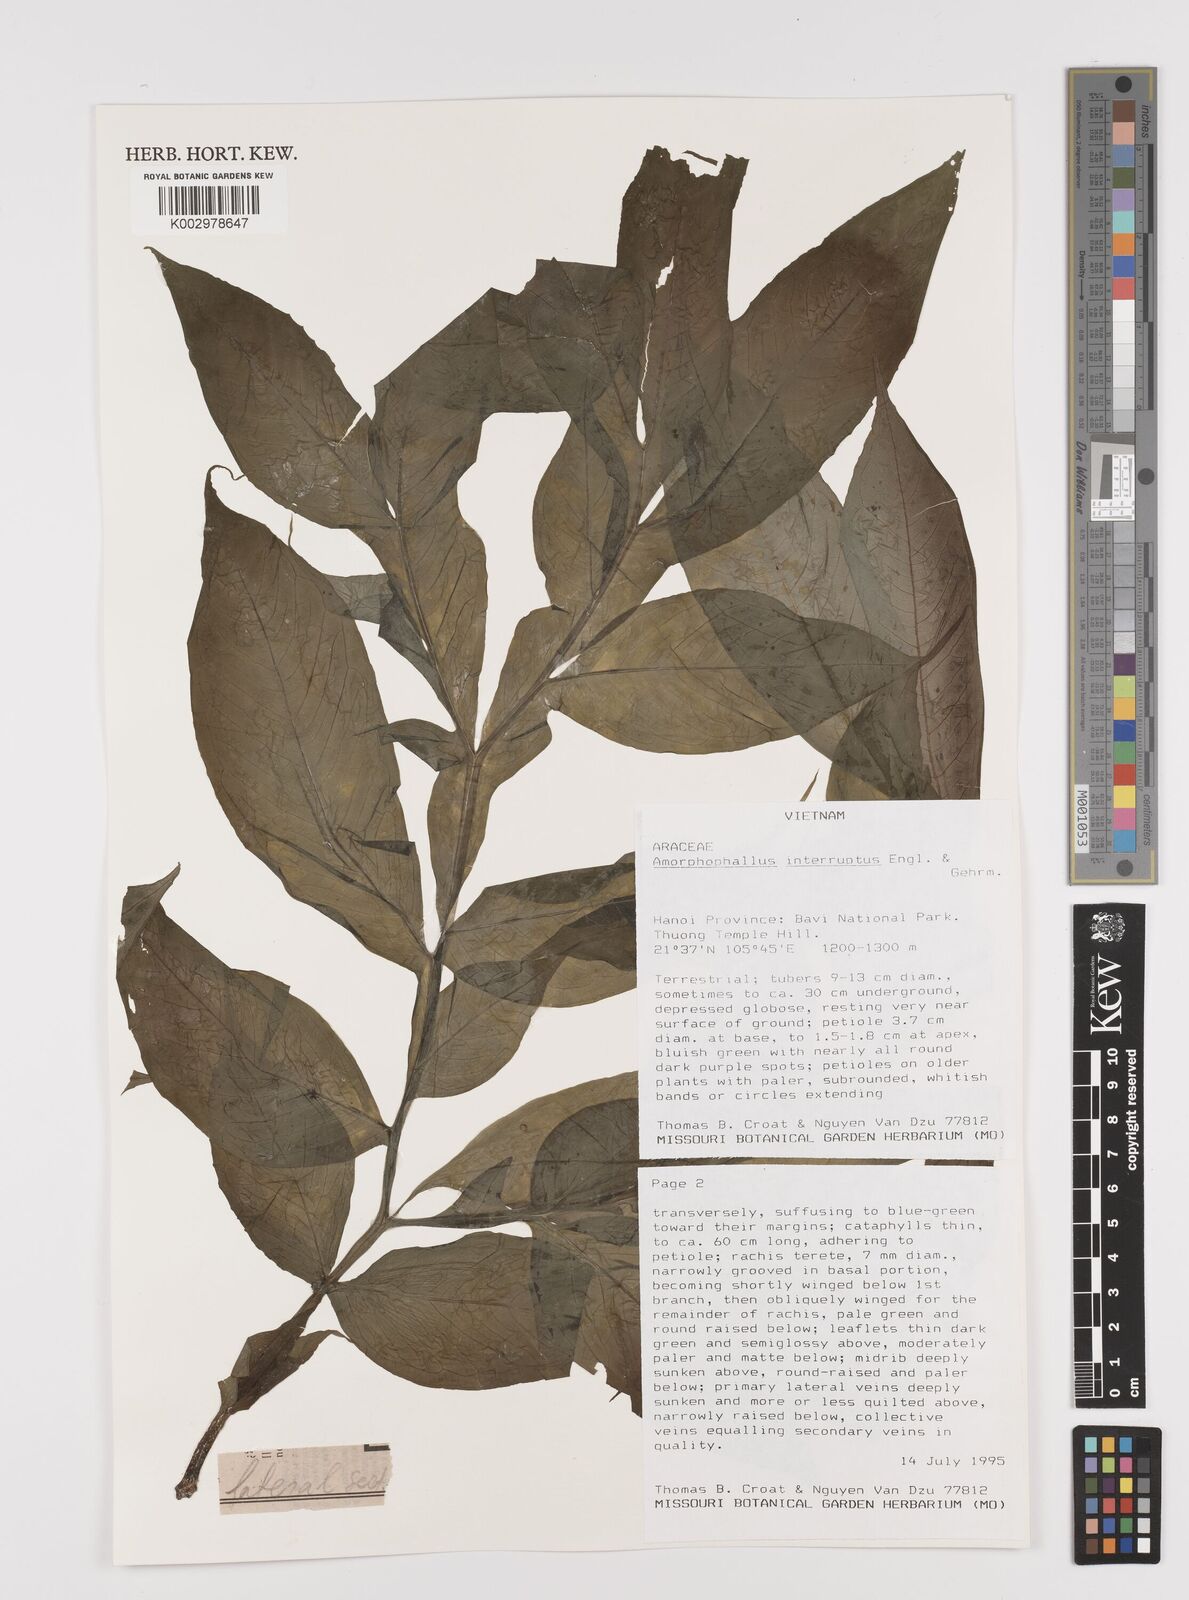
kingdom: Plantae
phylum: Tracheophyta
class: Liliopsida
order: Alismatales
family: Araceae
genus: Amorphophallus
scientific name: Amorphophallus interruptus
